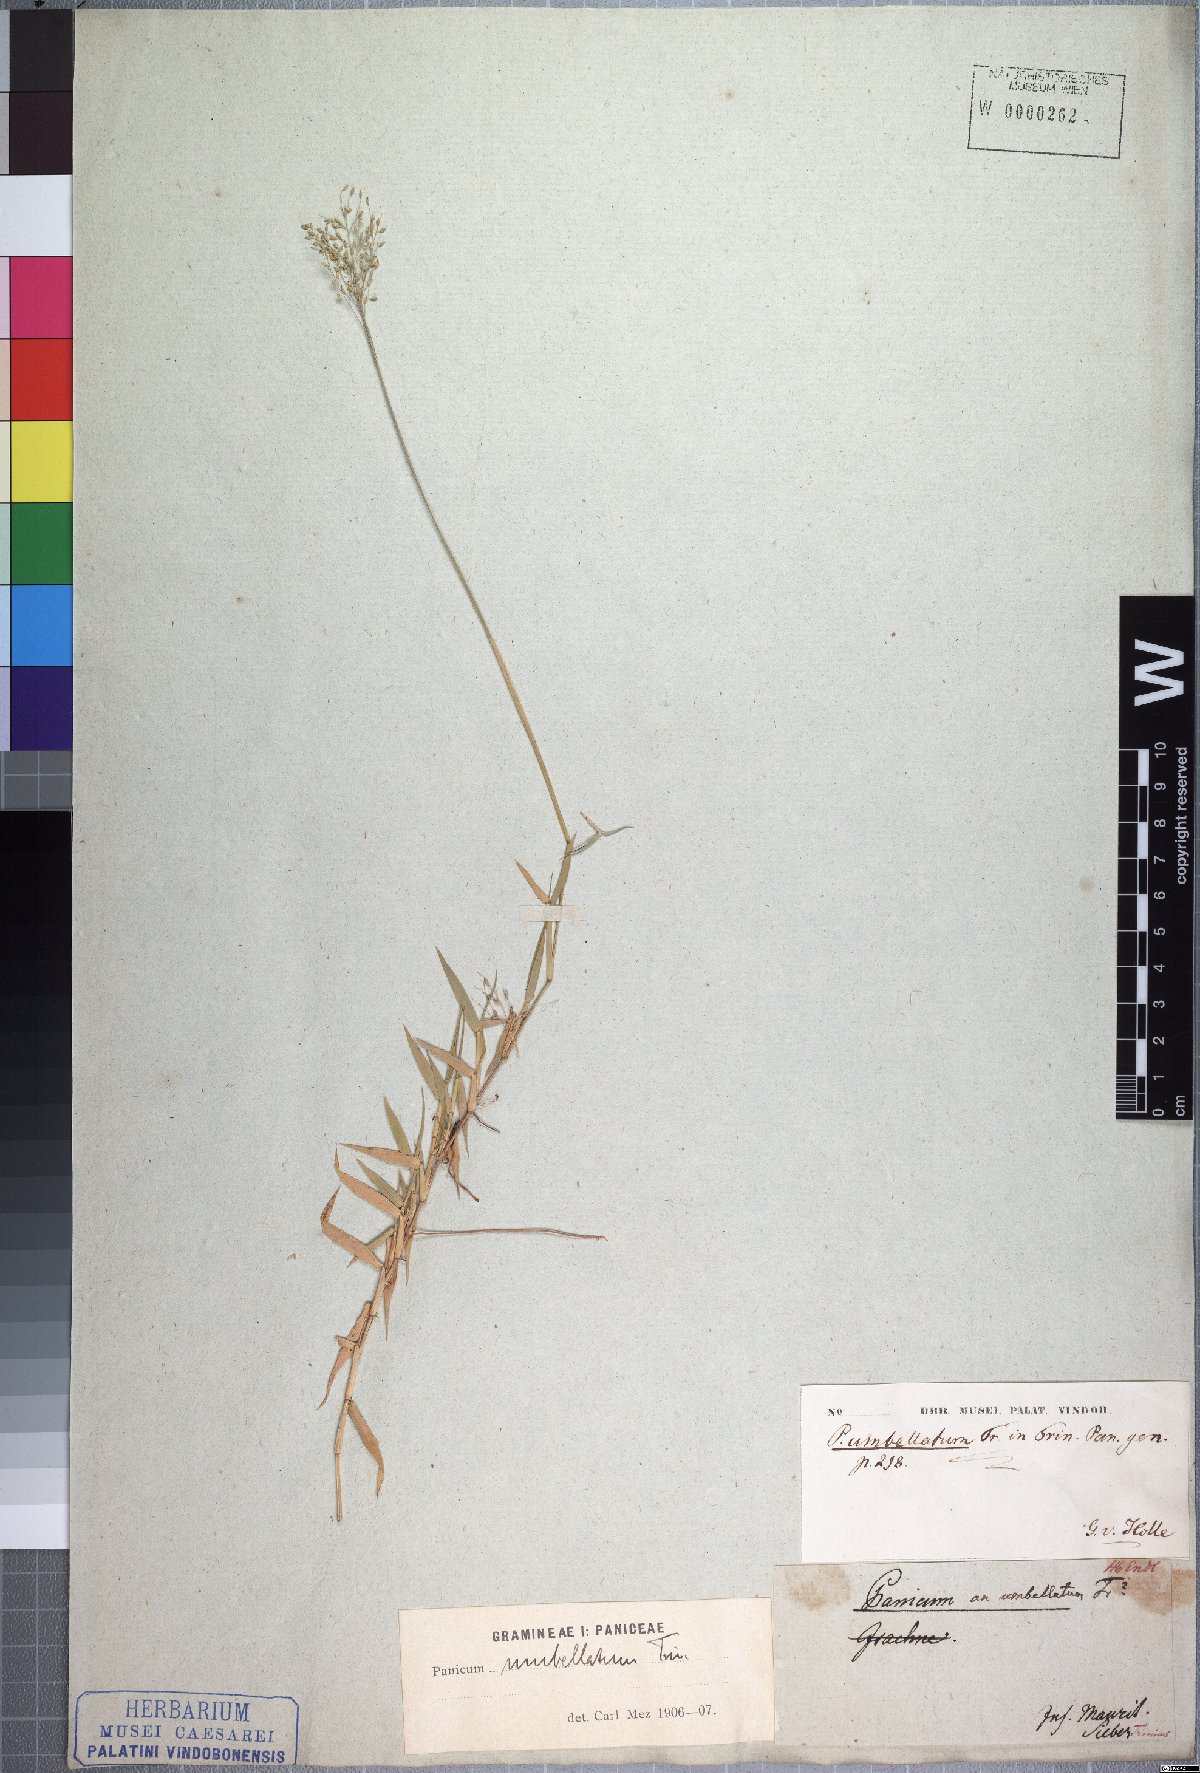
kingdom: Plantae
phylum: Tracheophyta
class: Liliopsida
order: Poales
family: Poaceae
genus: Urochloa
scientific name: Urochloa Brachiaria umbellata
